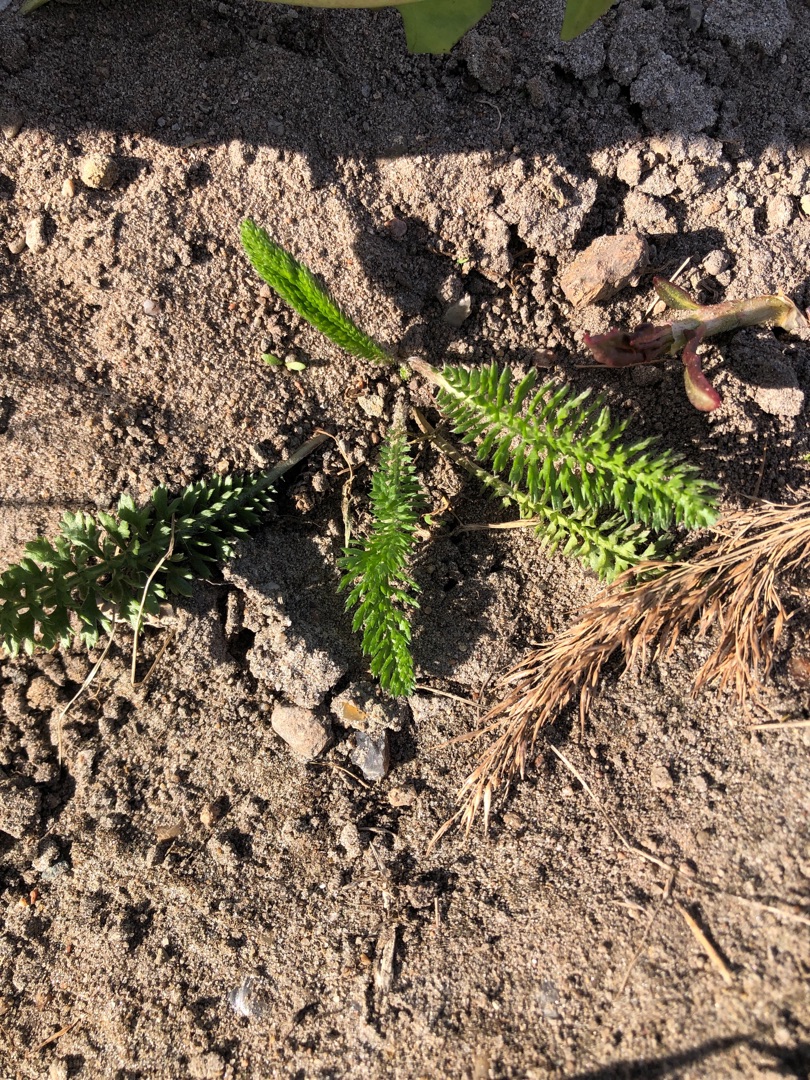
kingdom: Plantae
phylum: Tracheophyta
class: Magnoliopsida
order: Asterales
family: Asteraceae
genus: Achillea
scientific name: Achillea millefolium
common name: Almindelig røllike
